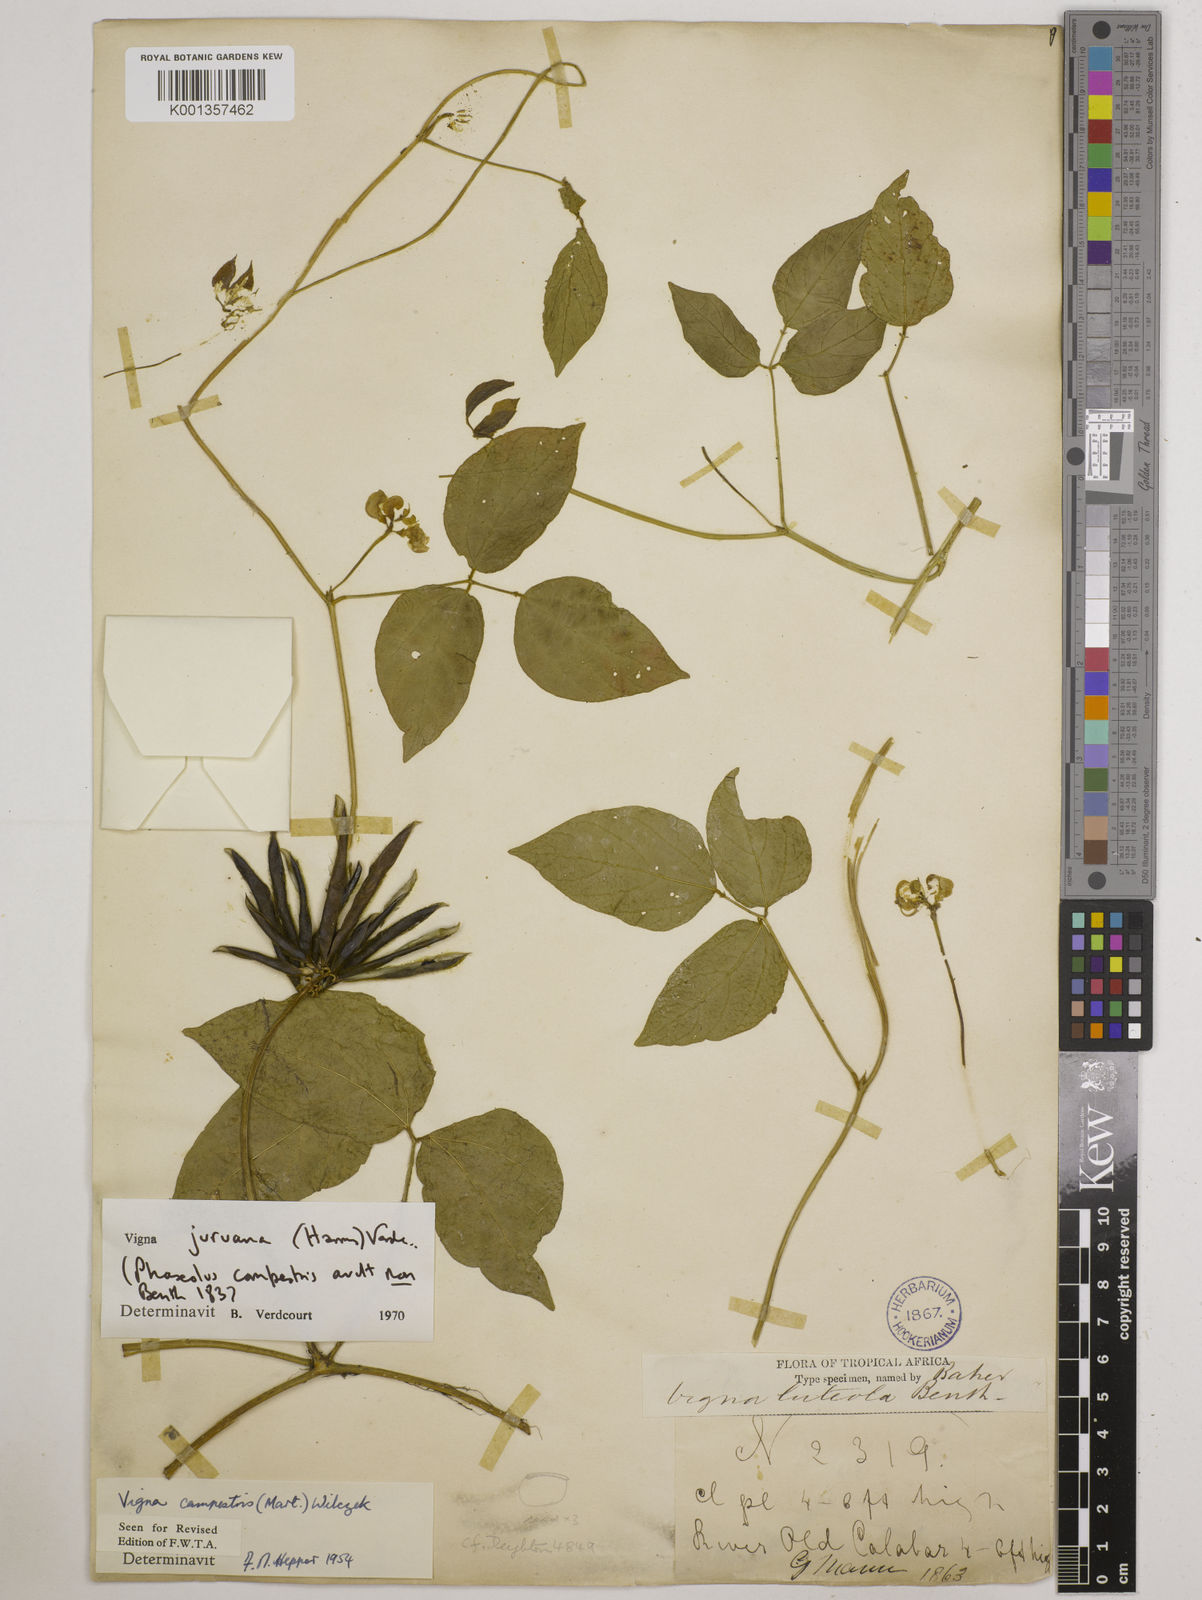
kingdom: Plantae
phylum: Tracheophyta
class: Magnoliopsida
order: Fabales
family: Fabaceae
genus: Vigna
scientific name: Vigna juruana
